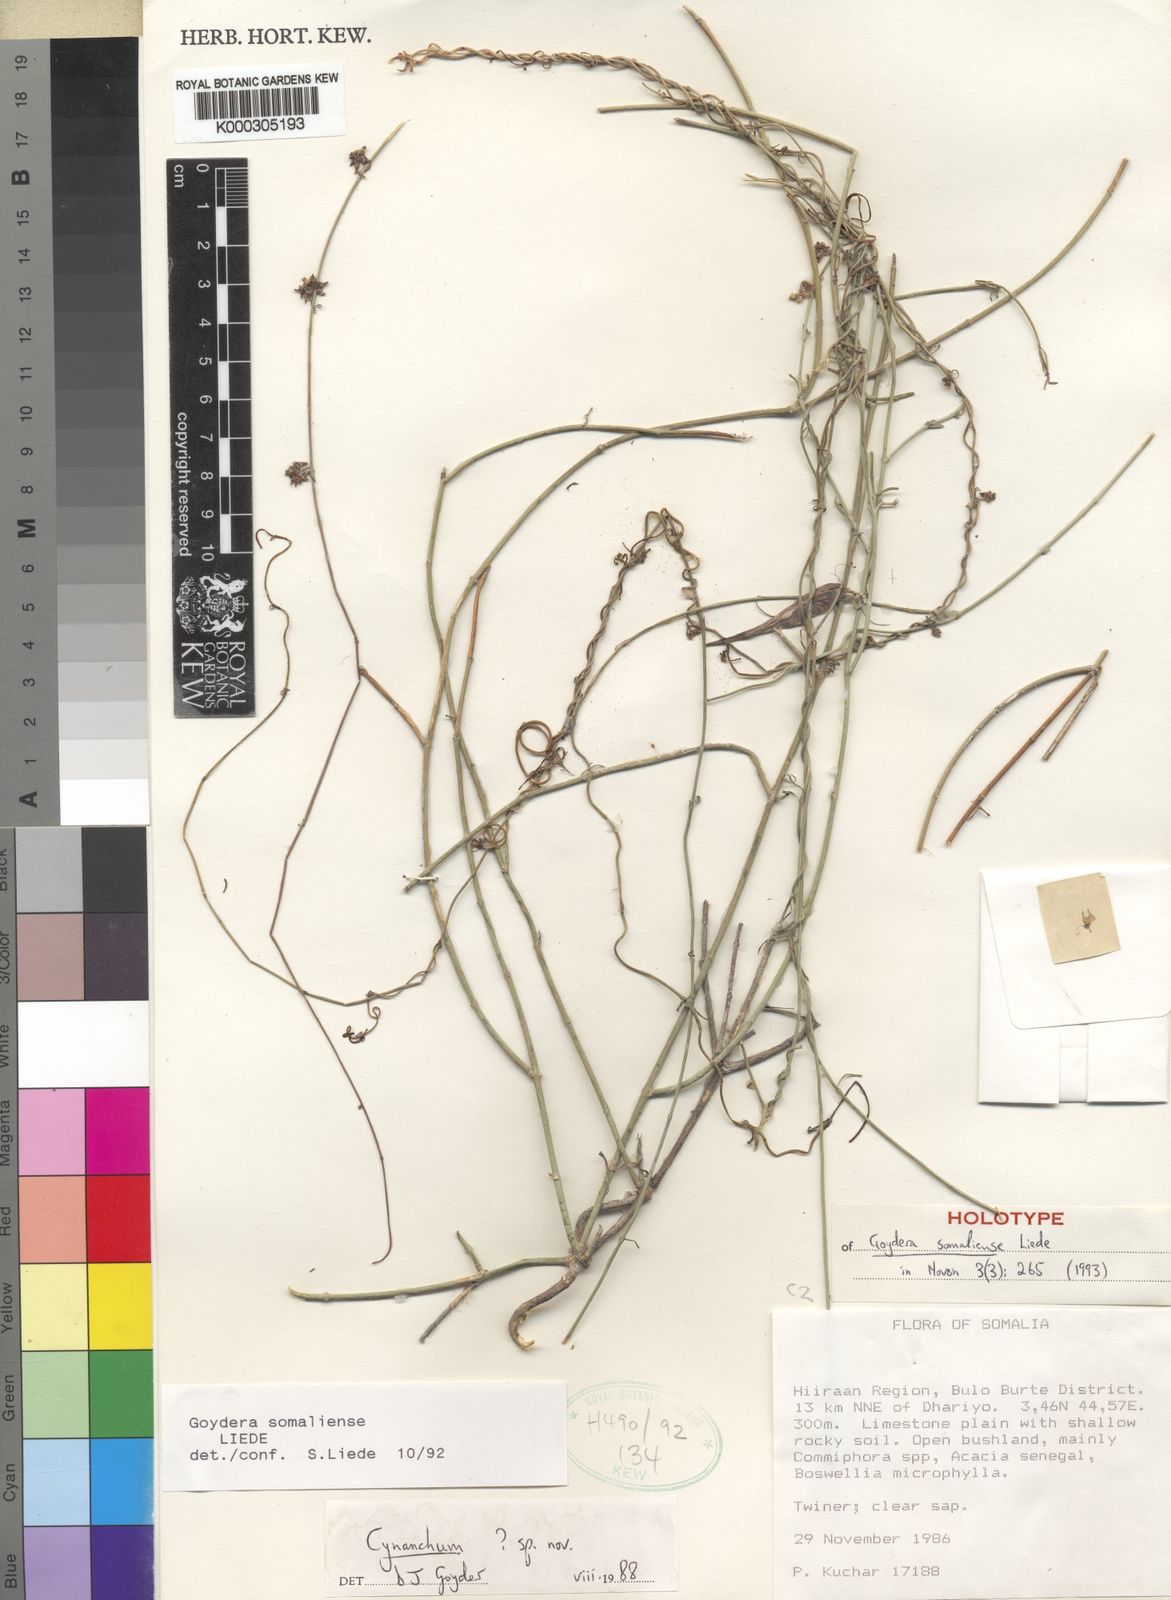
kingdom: Plantae
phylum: Tracheophyta
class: Magnoliopsida
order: Gentianales
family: Apocynaceae
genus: Vincetoxicum
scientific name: Vincetoxicum somaliense
